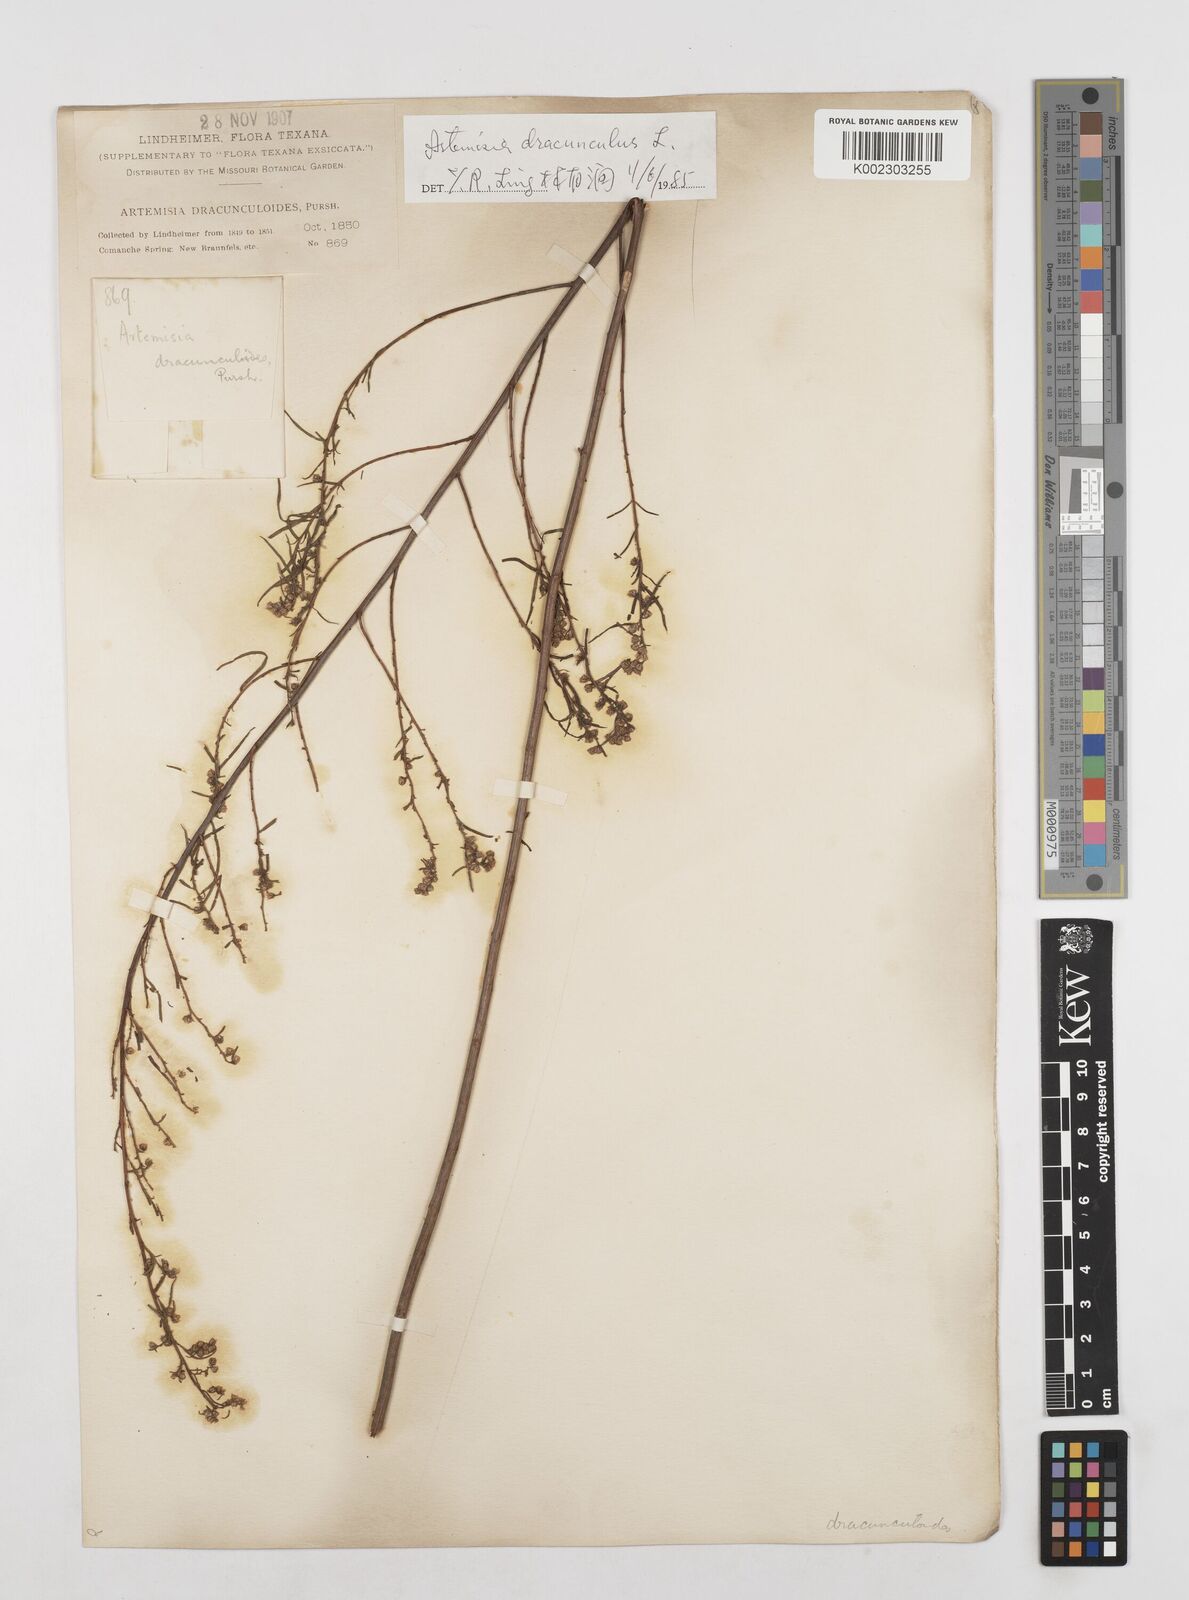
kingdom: Plantae
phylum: Tracheophyta
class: Magnoliopsida
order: Asterales
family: Asteraceae
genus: Artemisia
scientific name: Artemisia dracunculus
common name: Tarragon
